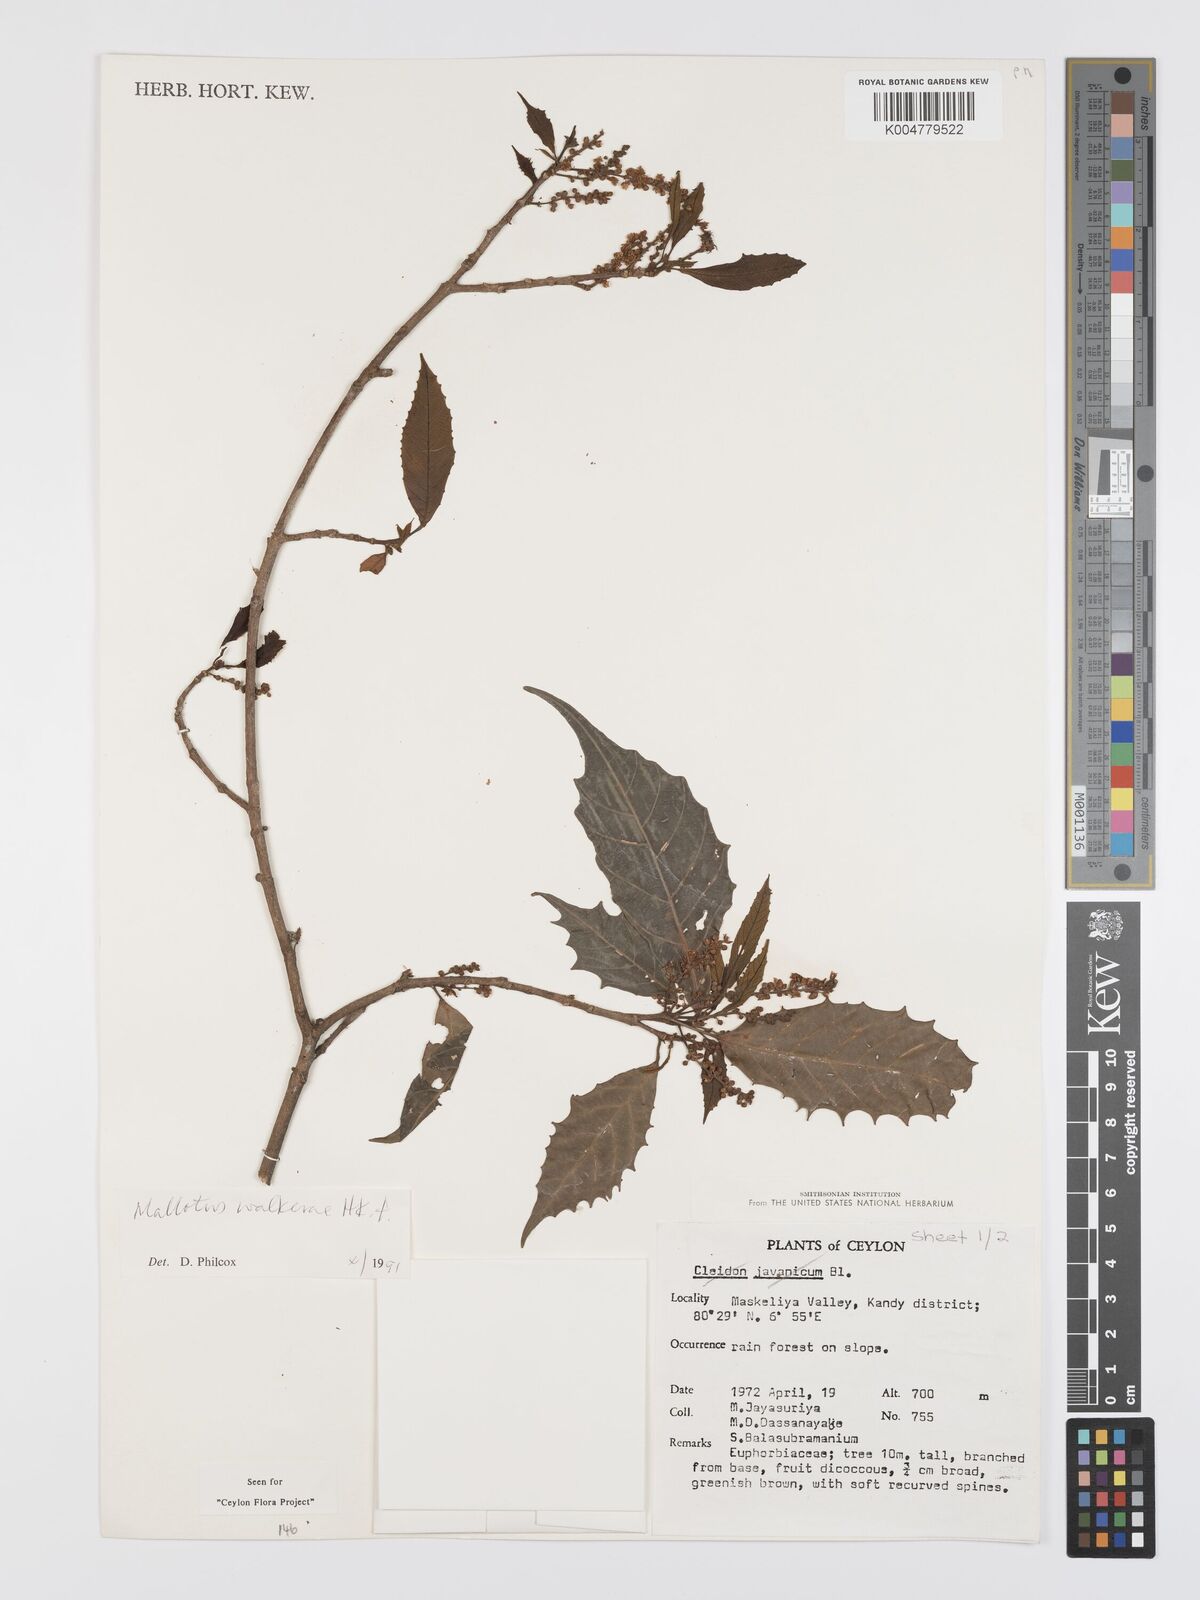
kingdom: Plantae
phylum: Tracheophyta
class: Magnoliopsida
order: Malpighiales
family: Euphorbiaceae
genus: Mallotus
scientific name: Mallotus resinosus
